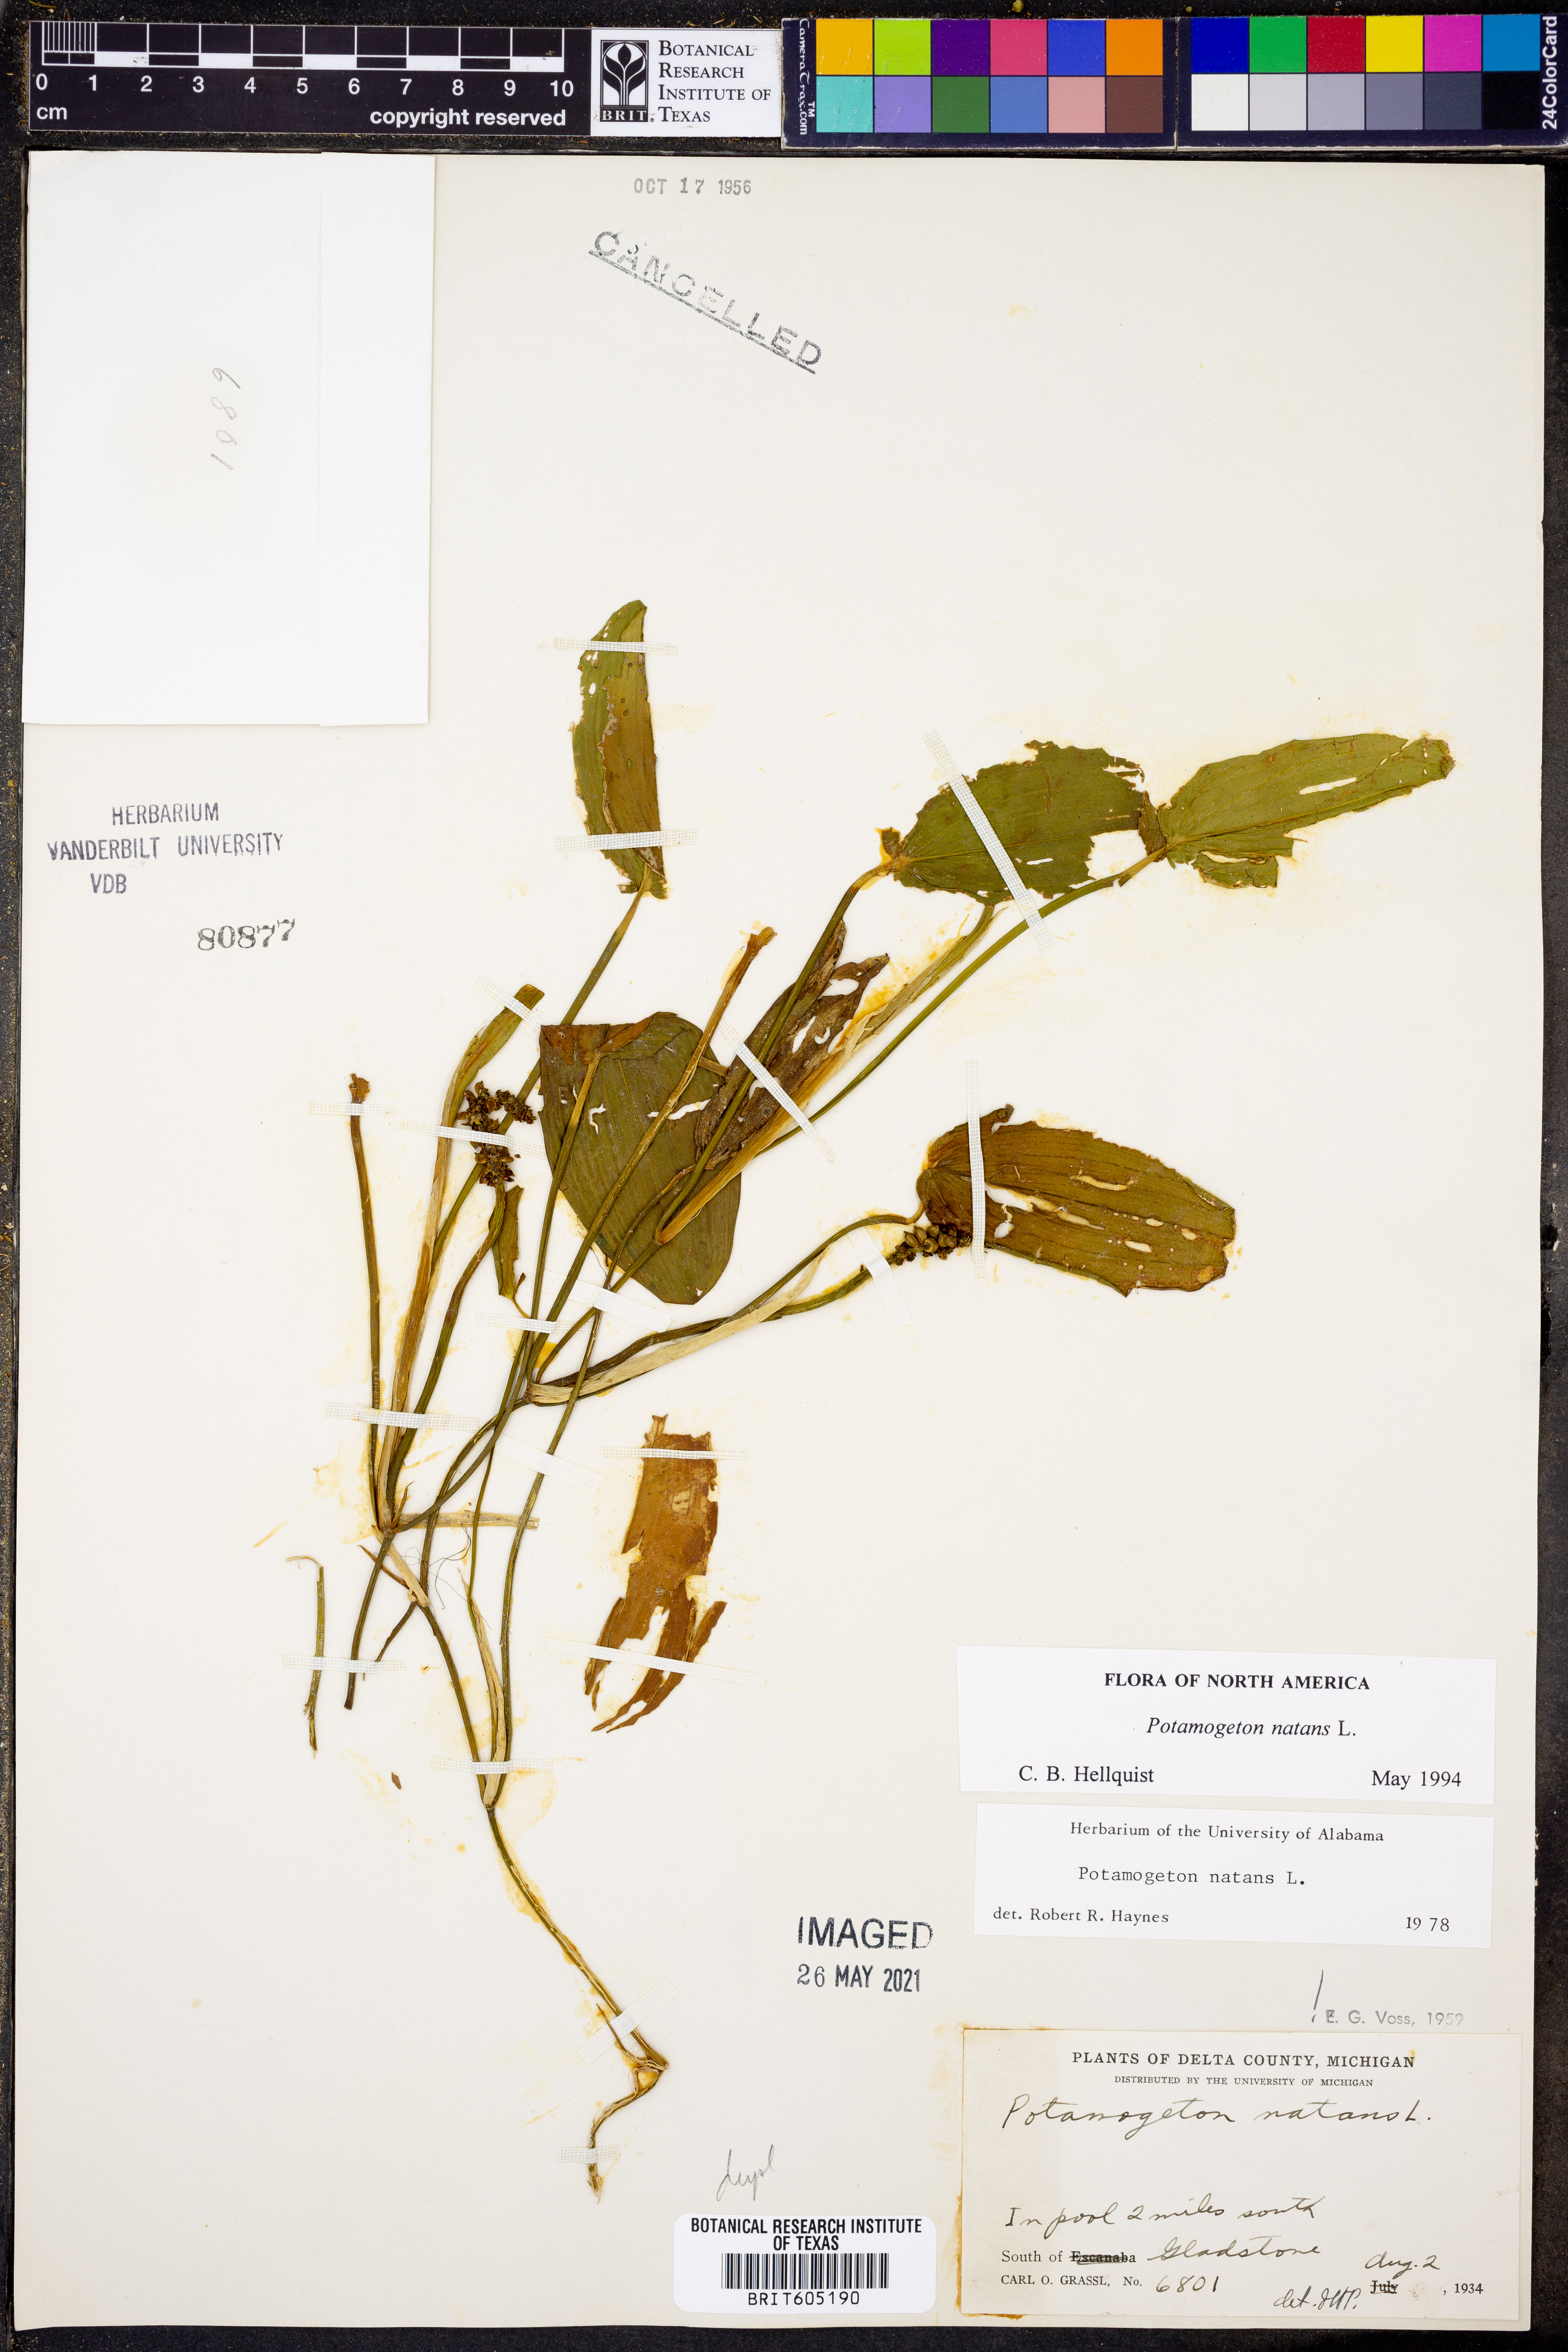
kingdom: Plantae
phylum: Tracheophyta
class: Liliopsida
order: Alismatales
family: Potamogetonaceae
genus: Potamogeton
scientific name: Potamogeton natans
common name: Broad-leaved pondweed
